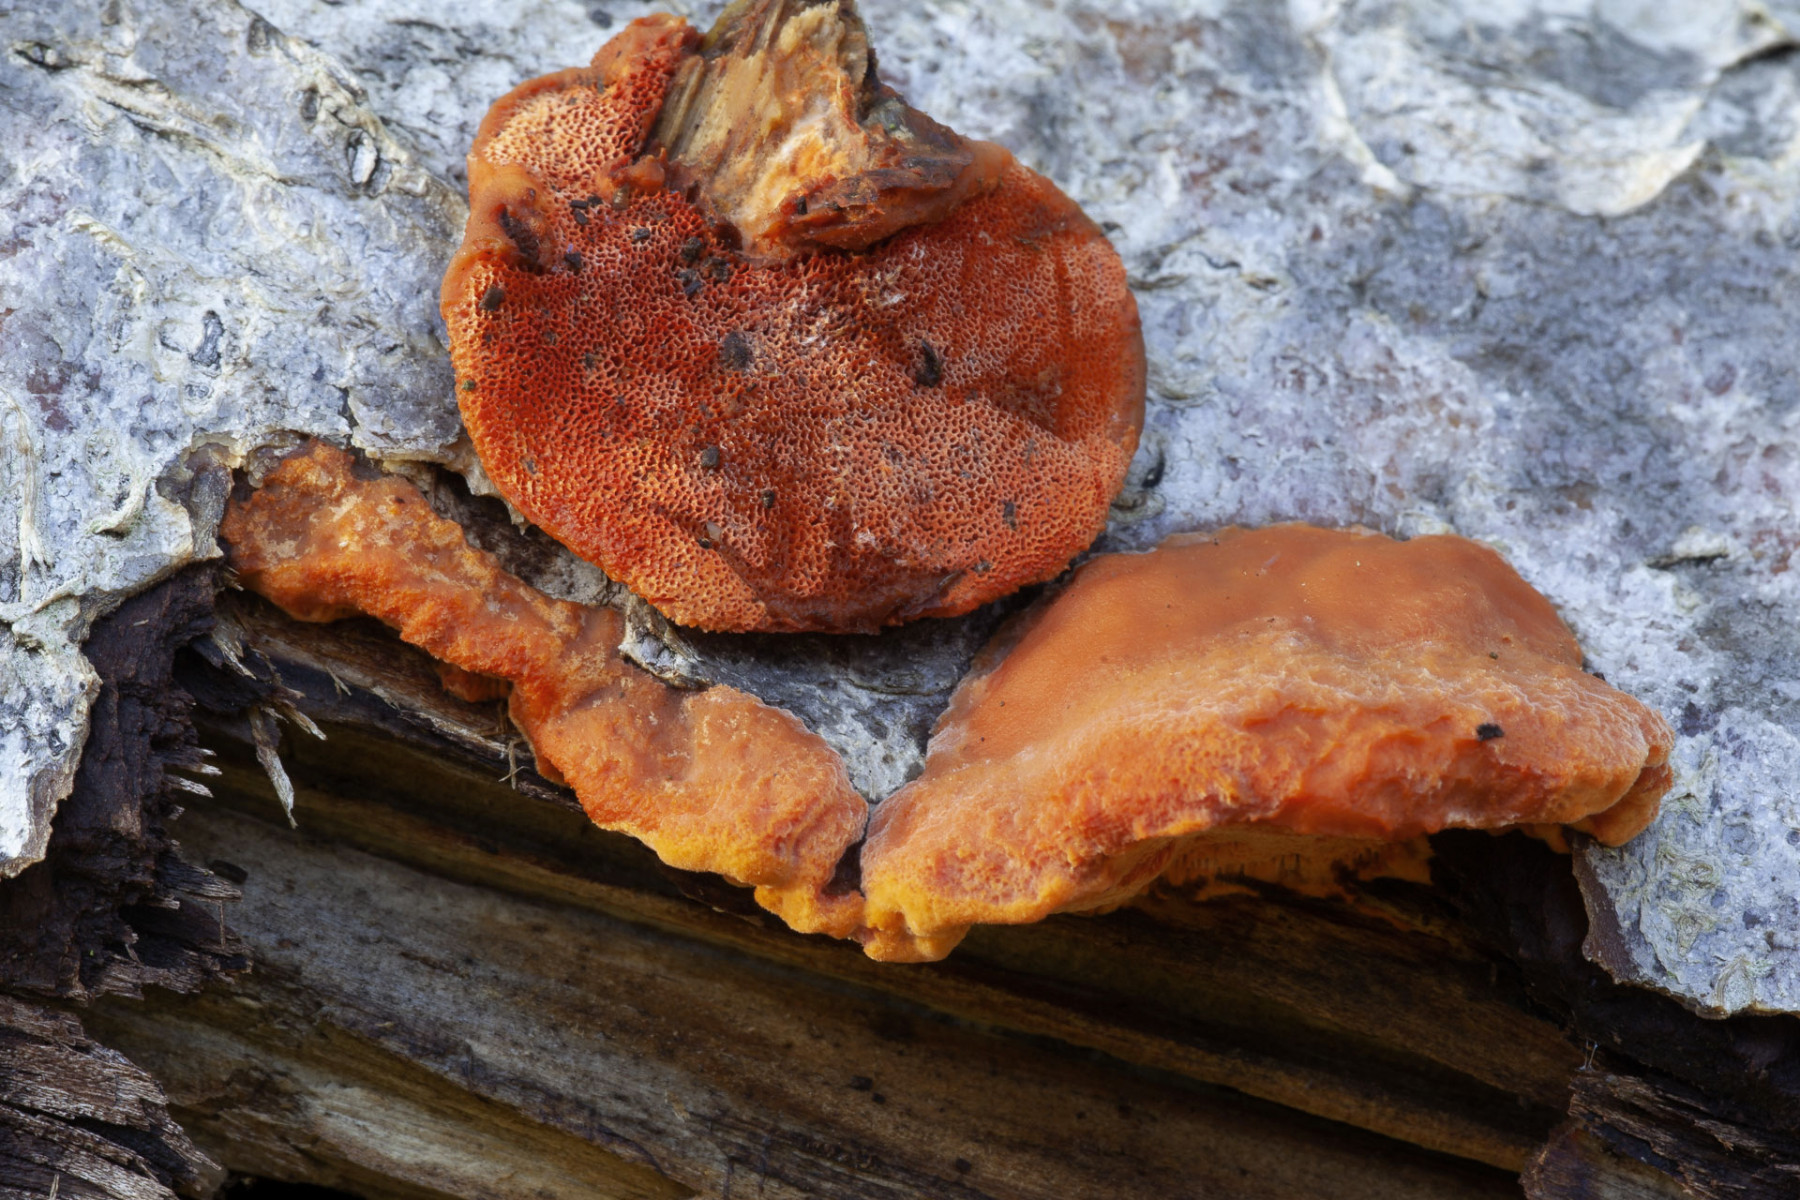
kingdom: Fungi
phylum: Basidiomycota
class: Agaricomycetes
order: Polyporales
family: Polyporaceae
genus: Pycnoporus
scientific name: Pycnoporus
